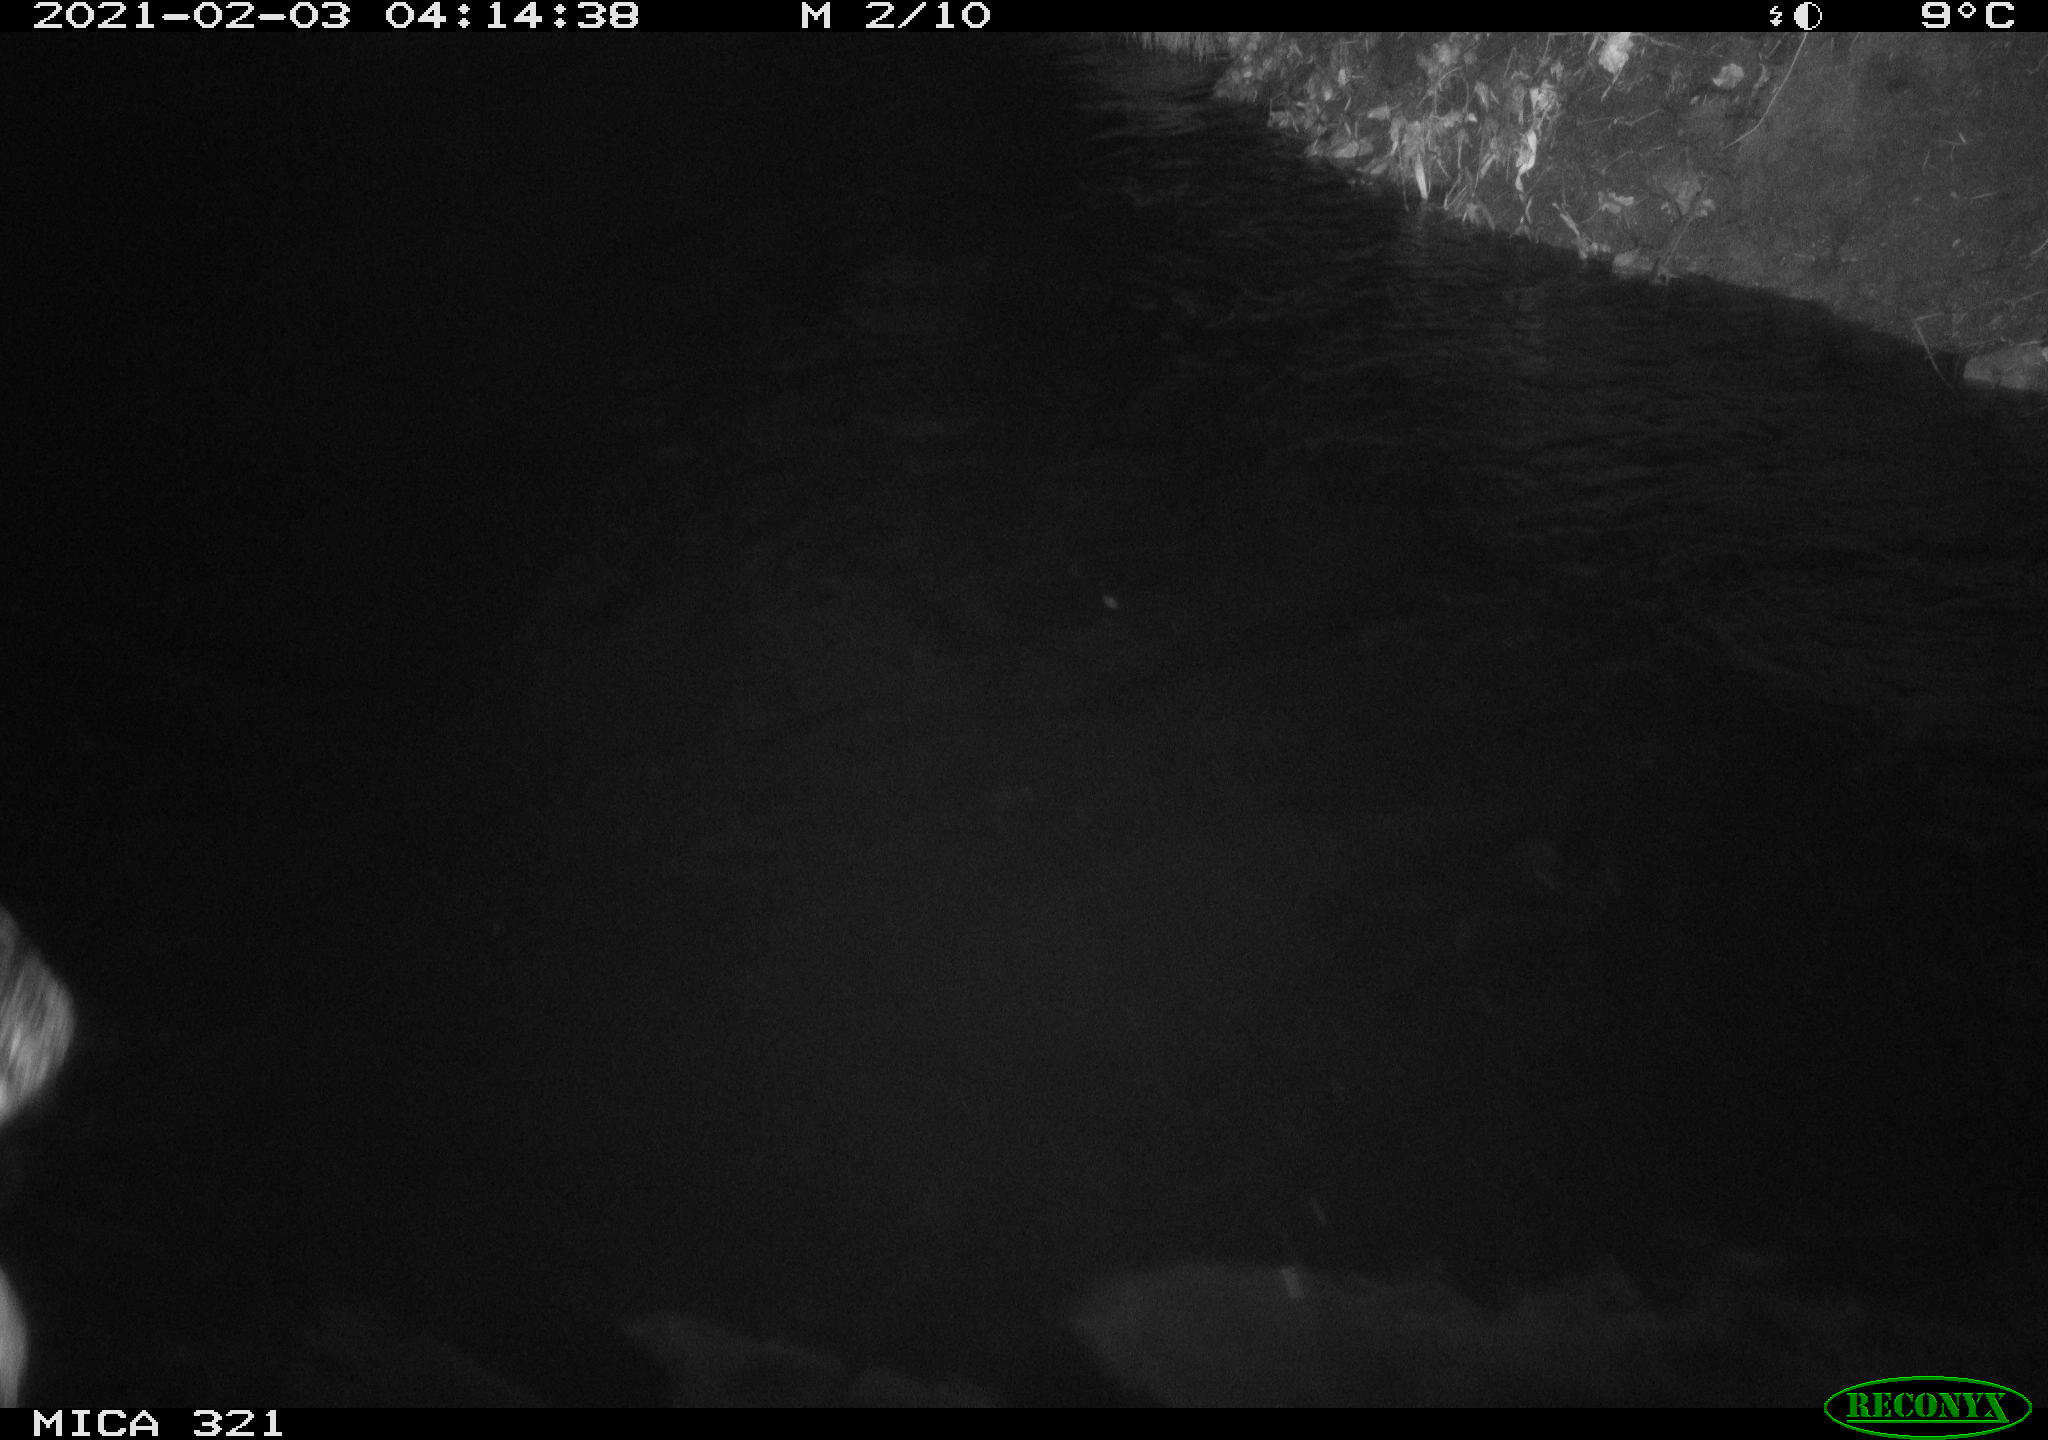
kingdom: Animalia
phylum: Chordata
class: Aves
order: Anseriformes
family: Anatidae
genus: Anas
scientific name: Anas platyrhynchos
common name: Mallard
